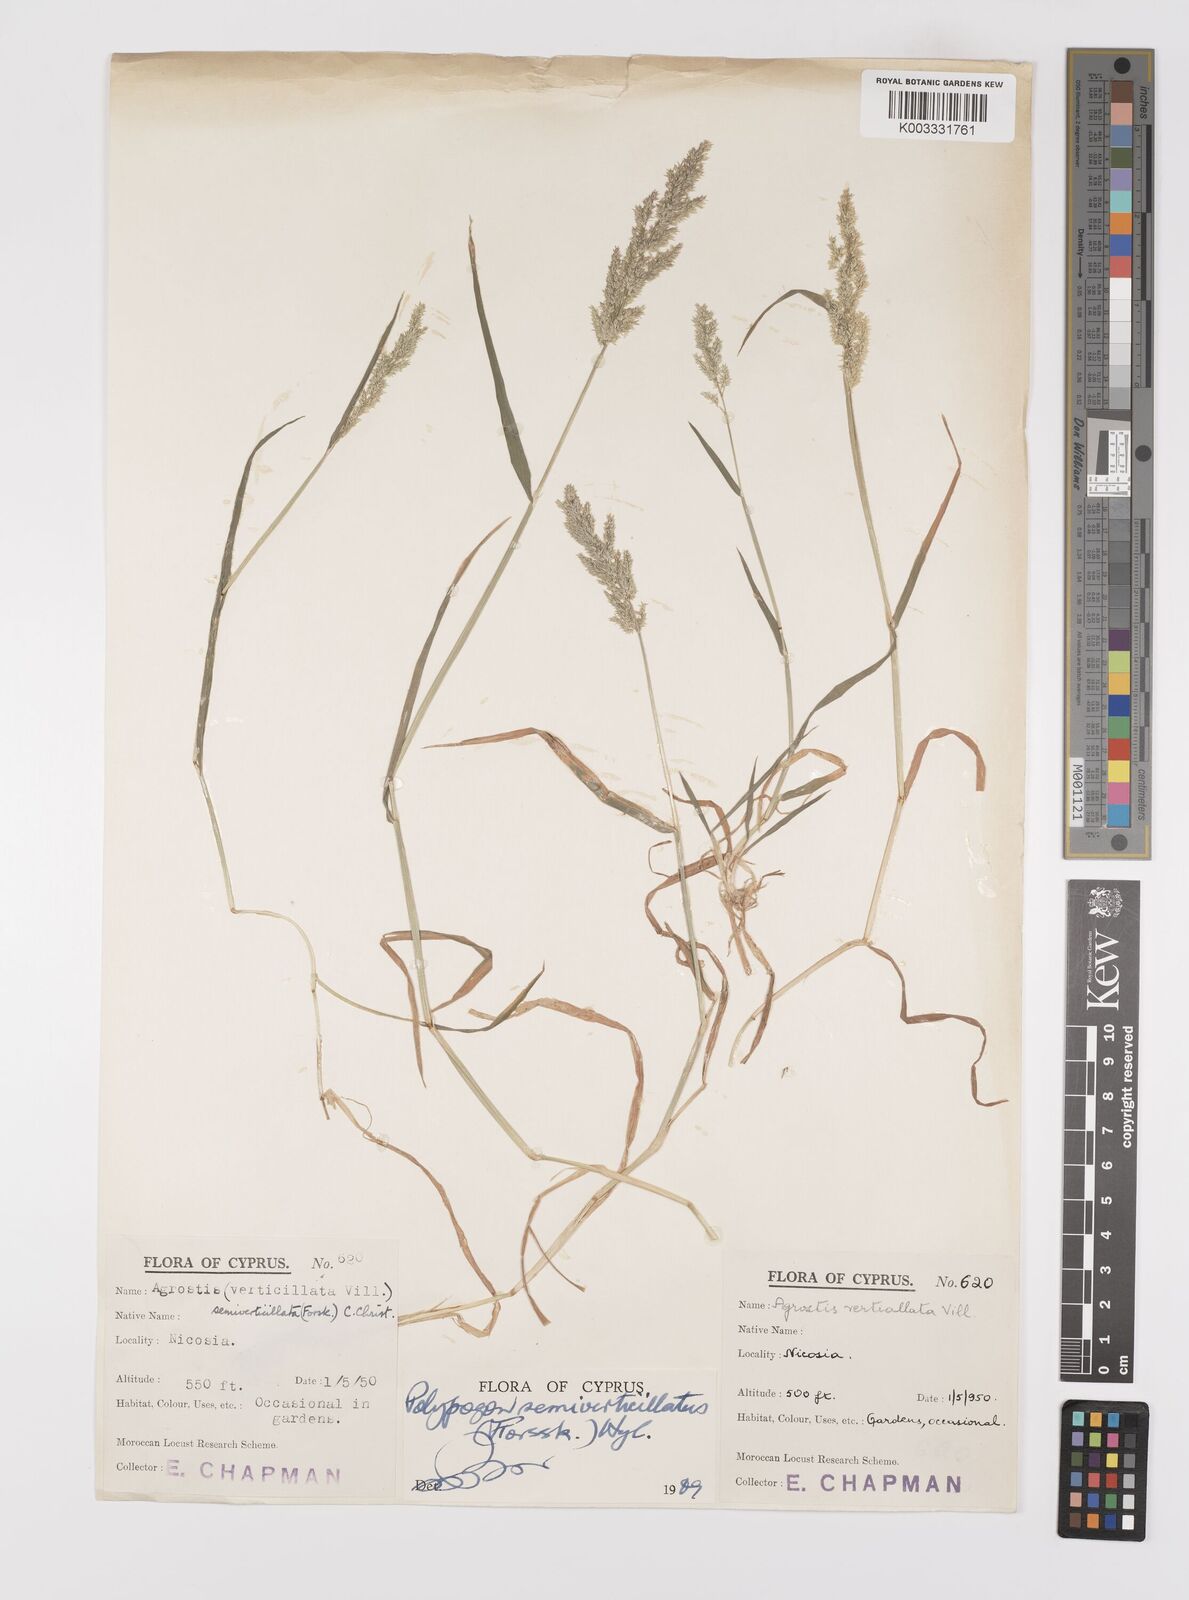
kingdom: Plantae
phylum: Tracheophyta
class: Liliopsida
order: Poales
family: Poaceae
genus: Polypogon
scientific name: Polypogon viridis
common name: Water bent
